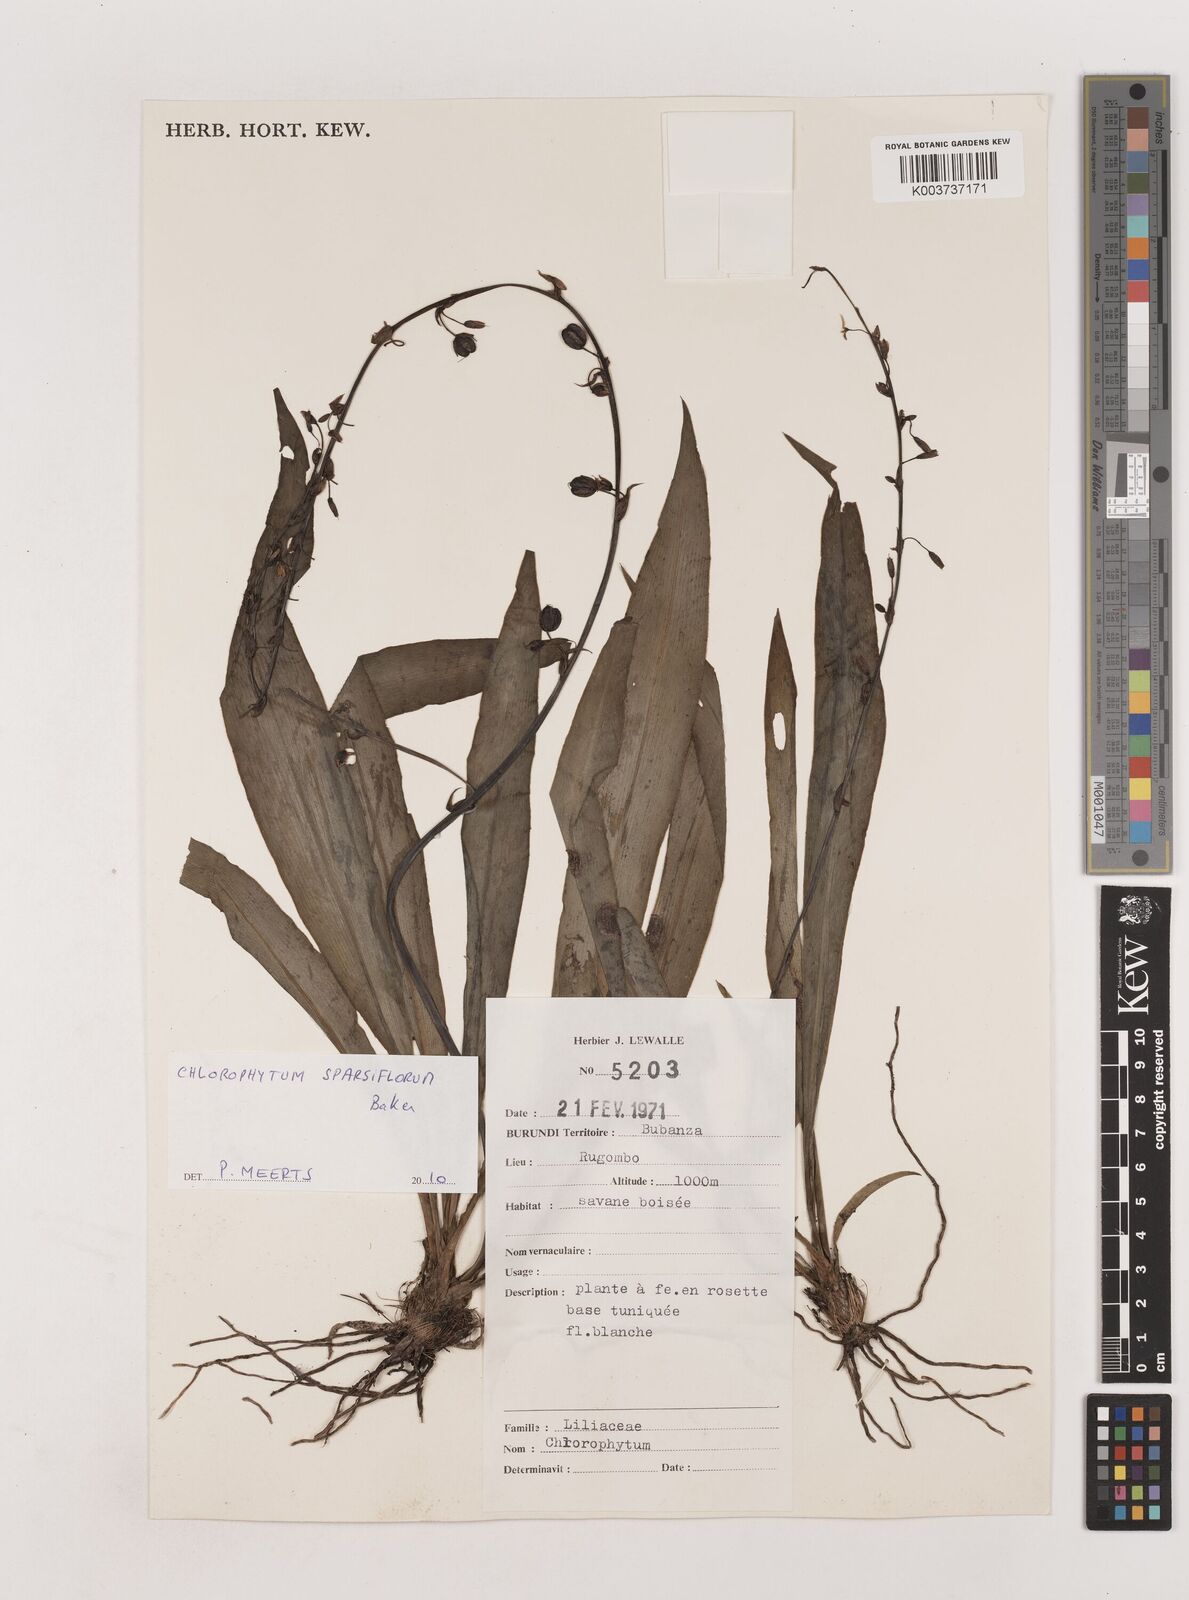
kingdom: Plantae
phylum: Tracheophyta
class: Liliopsida
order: Asparagales
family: Asparagaceae
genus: Chlorophytum
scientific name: Chlorophytum sparsiflorum
